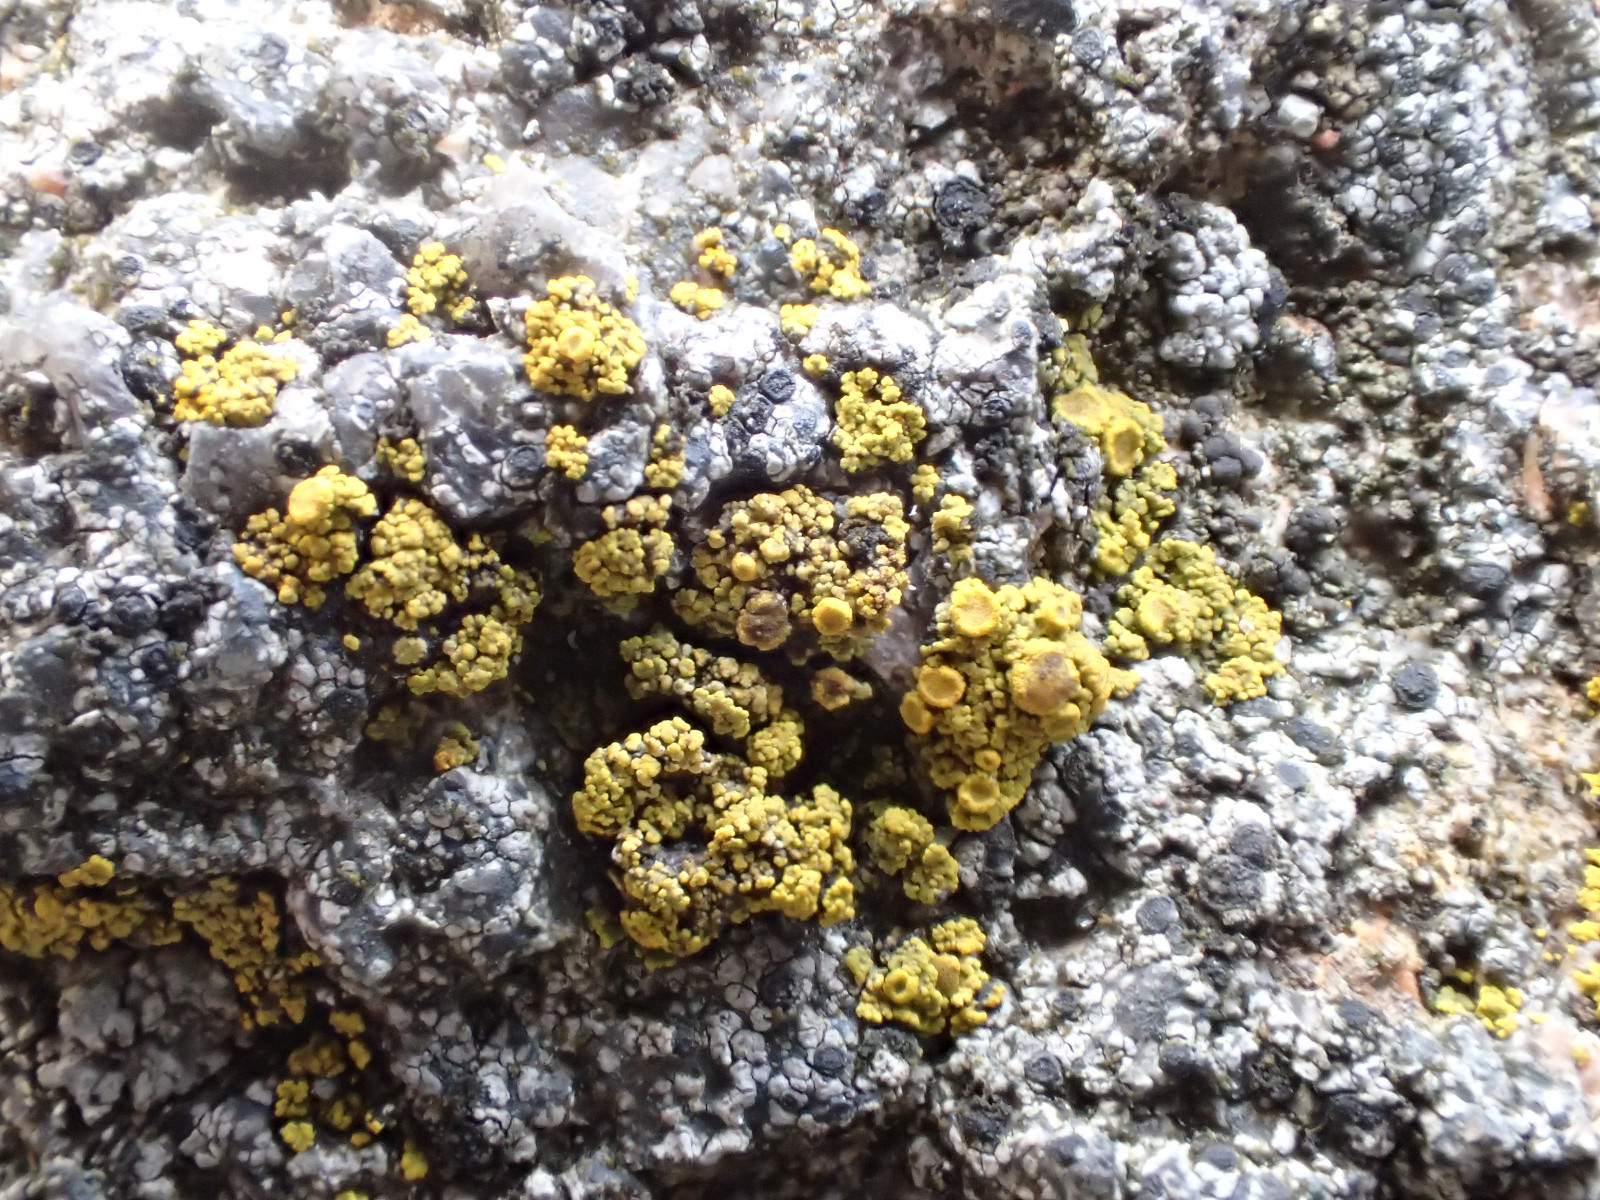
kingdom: Fungi
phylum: Ascomycota
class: Candelariomycetes
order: Candelariales
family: Candelariaceae
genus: Candelariella
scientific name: Candelariella vitellina
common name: almindelig æggeblommelav
